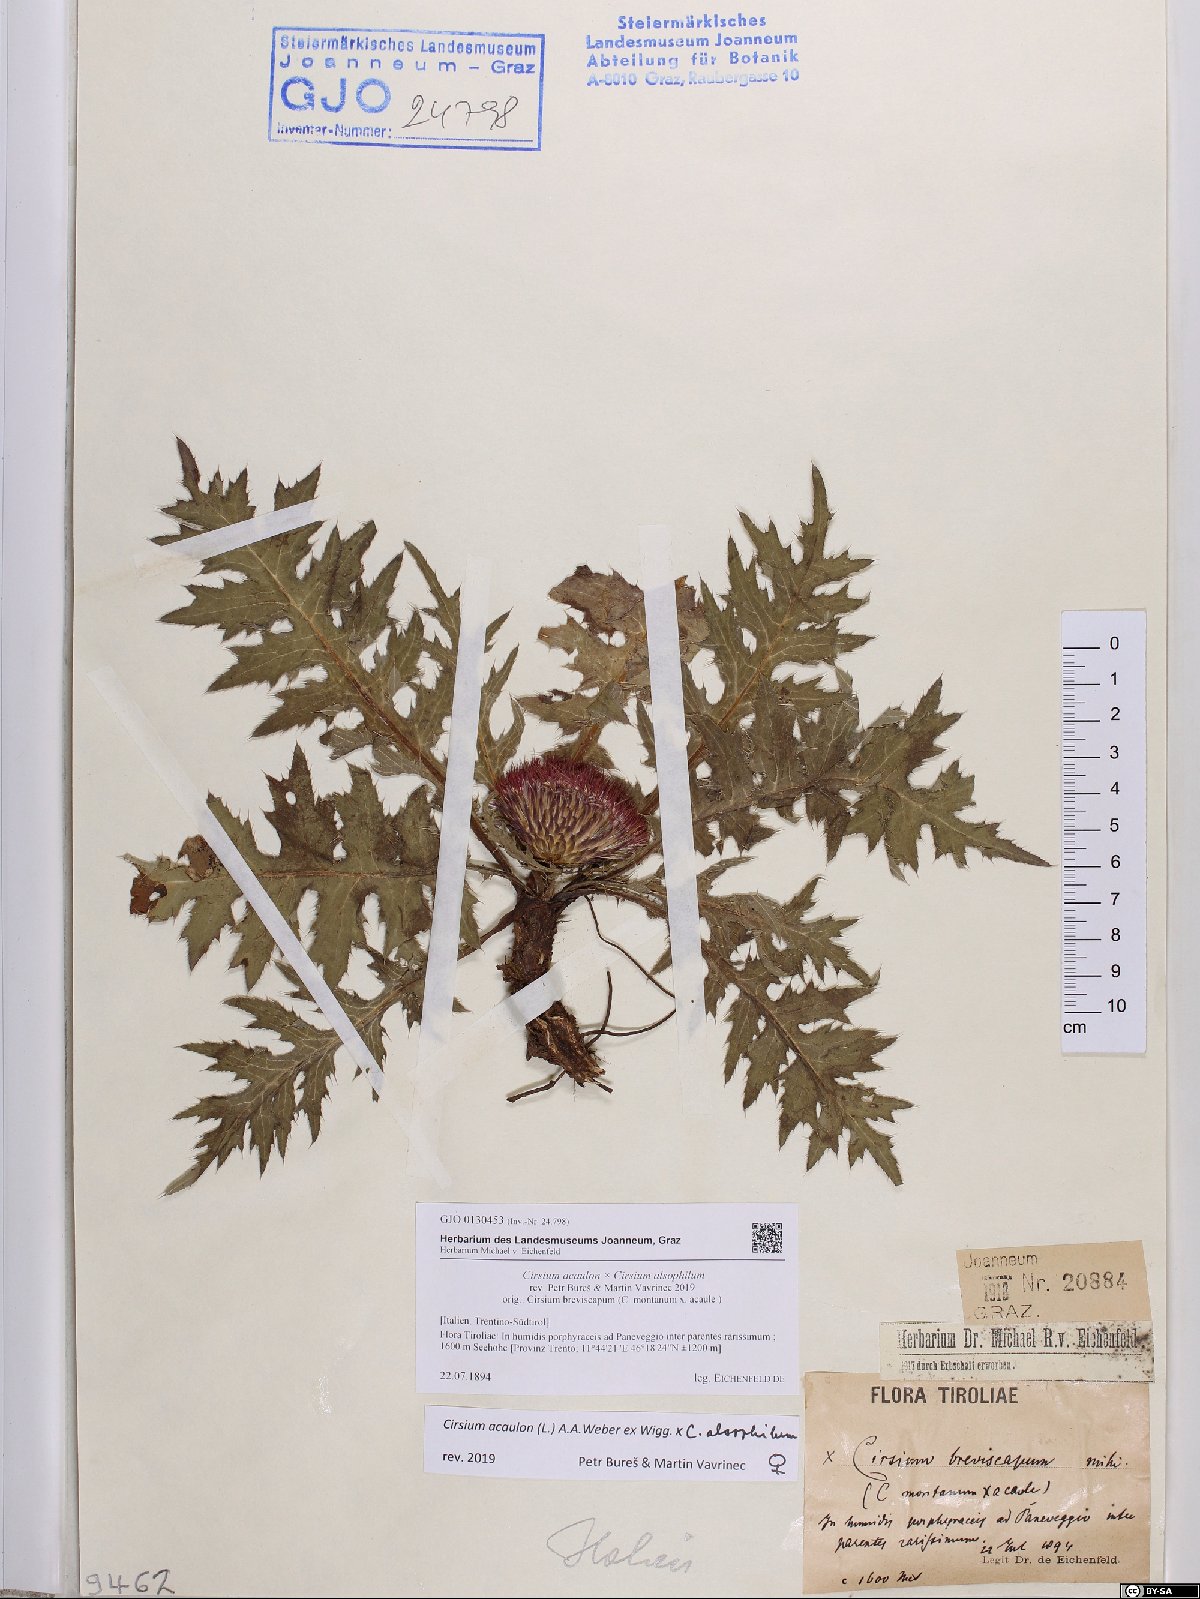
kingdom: Plantae
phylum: Tracheophyta
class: Magnoliopsida
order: Asterales
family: Asteraceae
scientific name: Asteraceae
